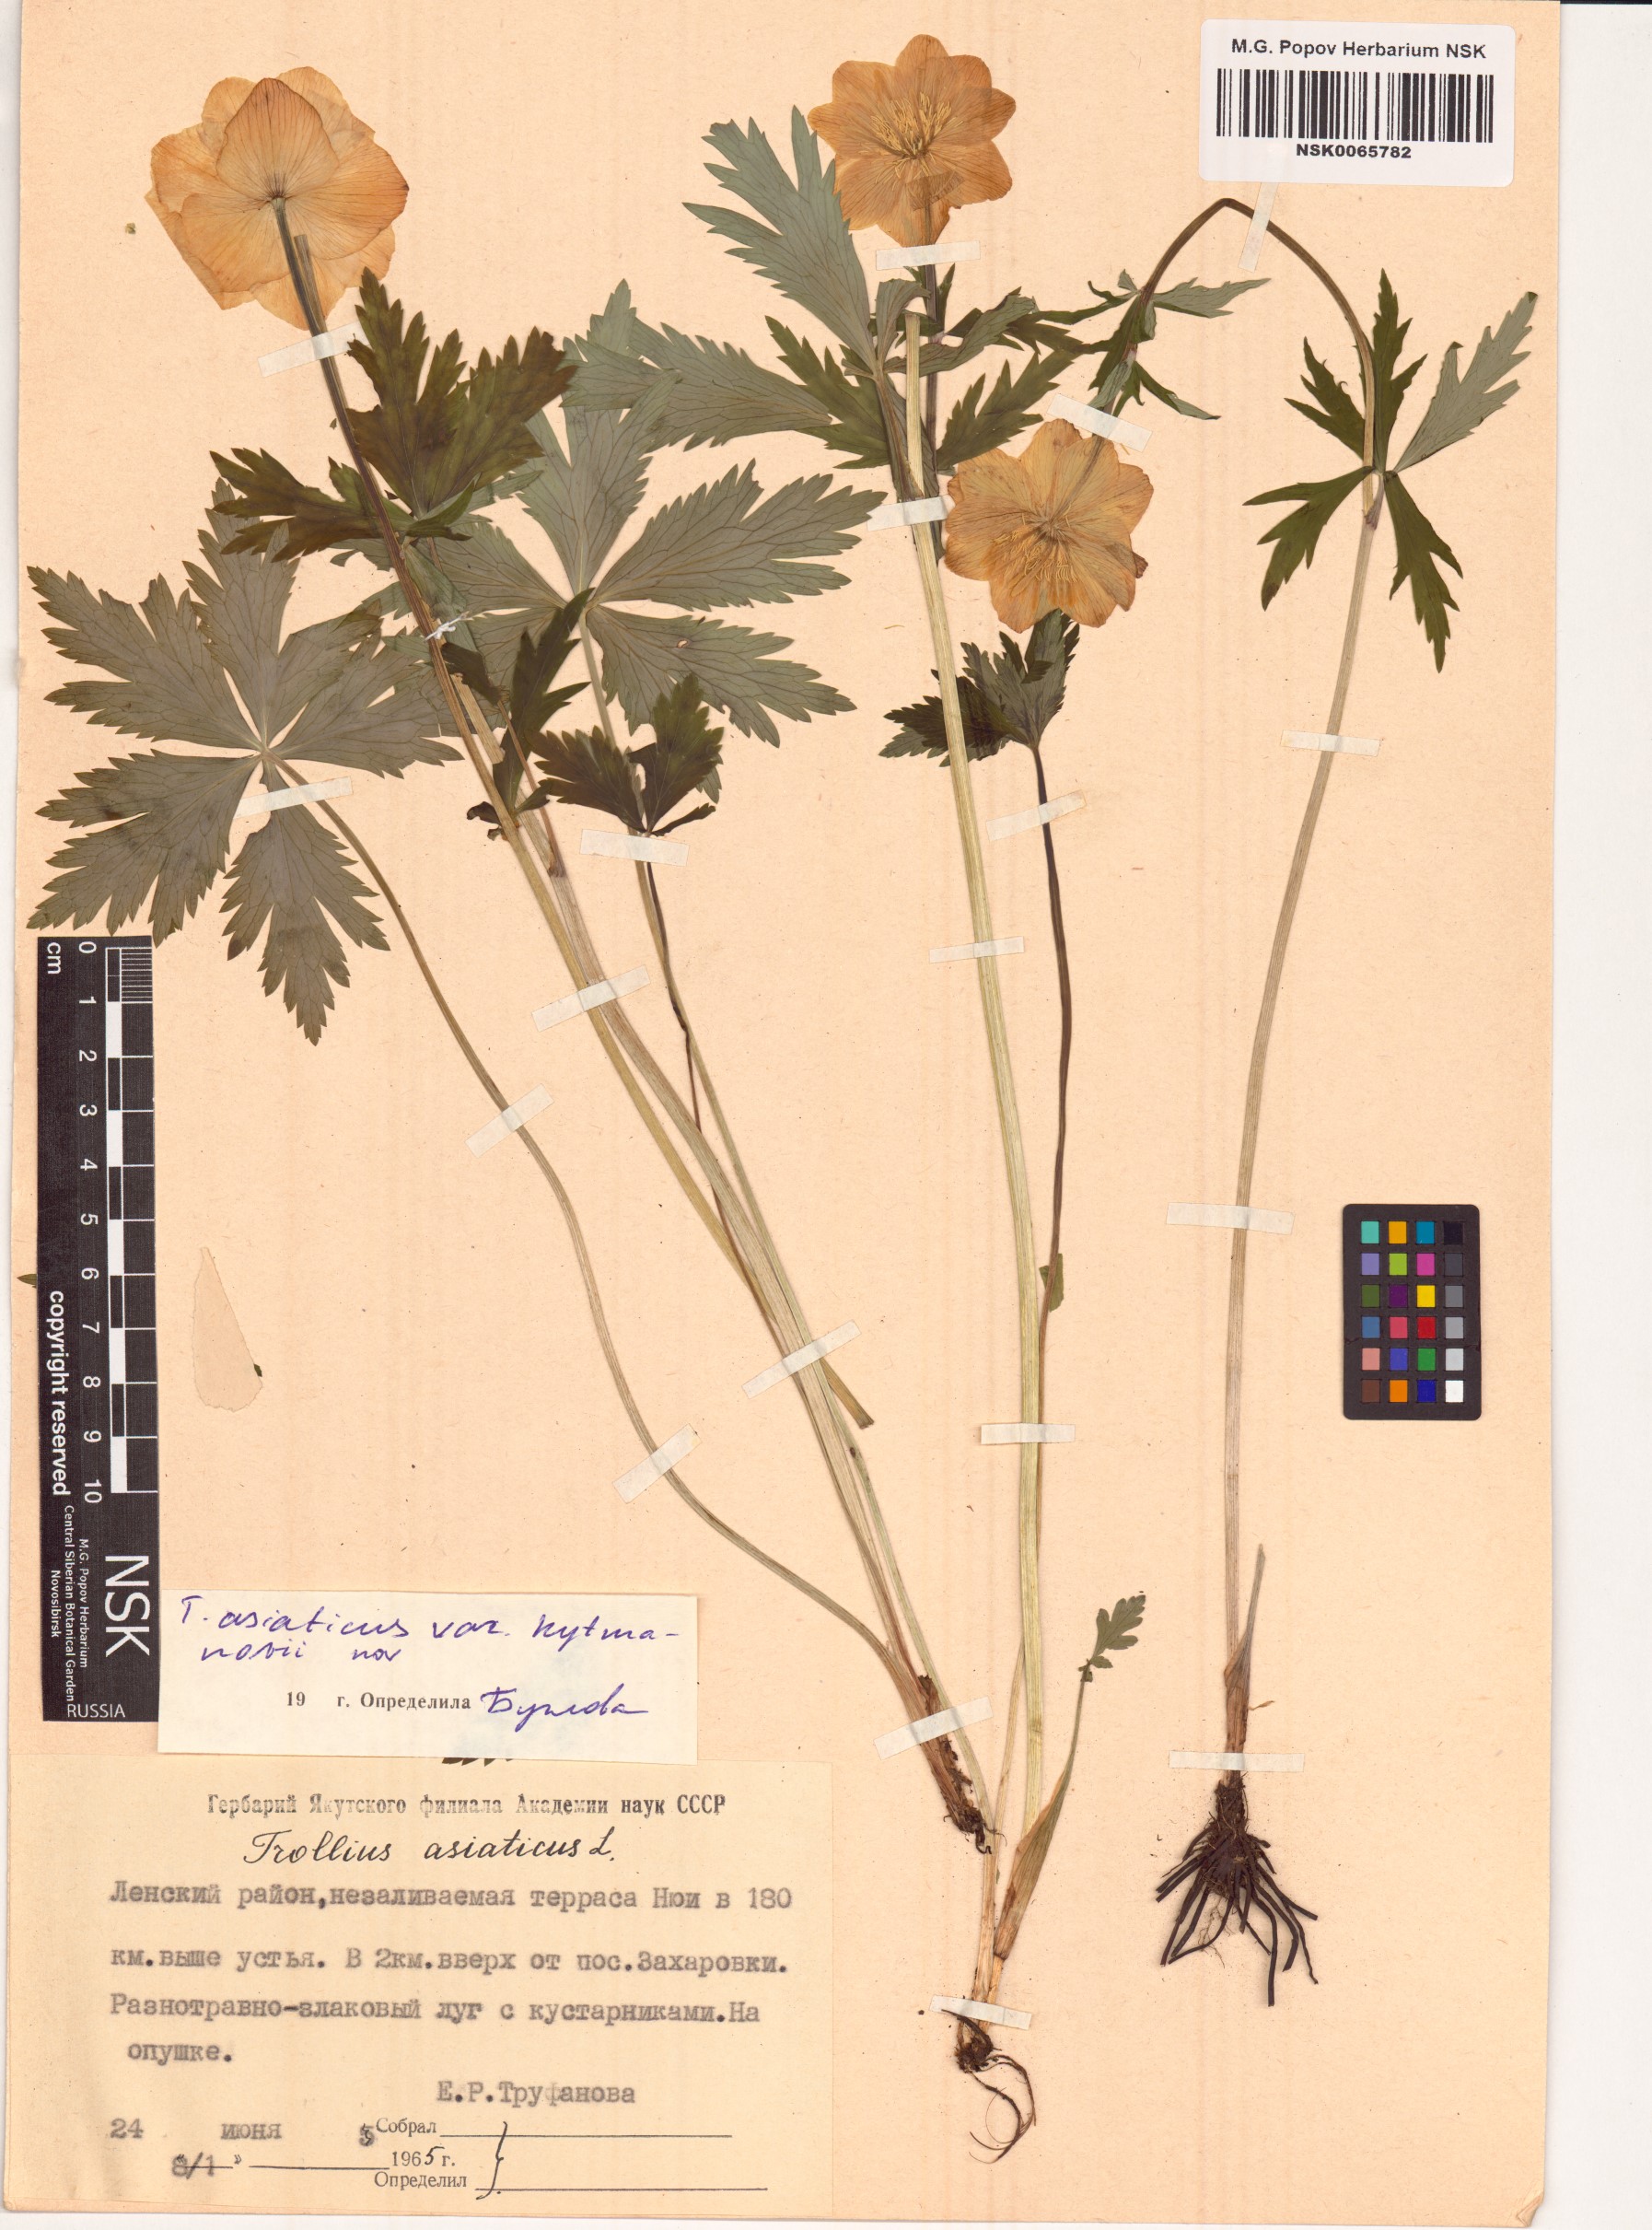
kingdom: Plantae
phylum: Tracheophyta
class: Magnoliopsida
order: Ranunculales
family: Ranunculaceae
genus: Trollius
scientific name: Trollius kytmanovii
